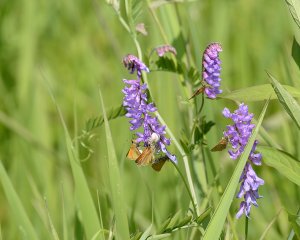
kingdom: Animalia
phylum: Arthropoda
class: Insecta
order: Lepidoptera
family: Hesperiidae
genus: Thymelicus
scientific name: Thymelicus lineola
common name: European Skipper
